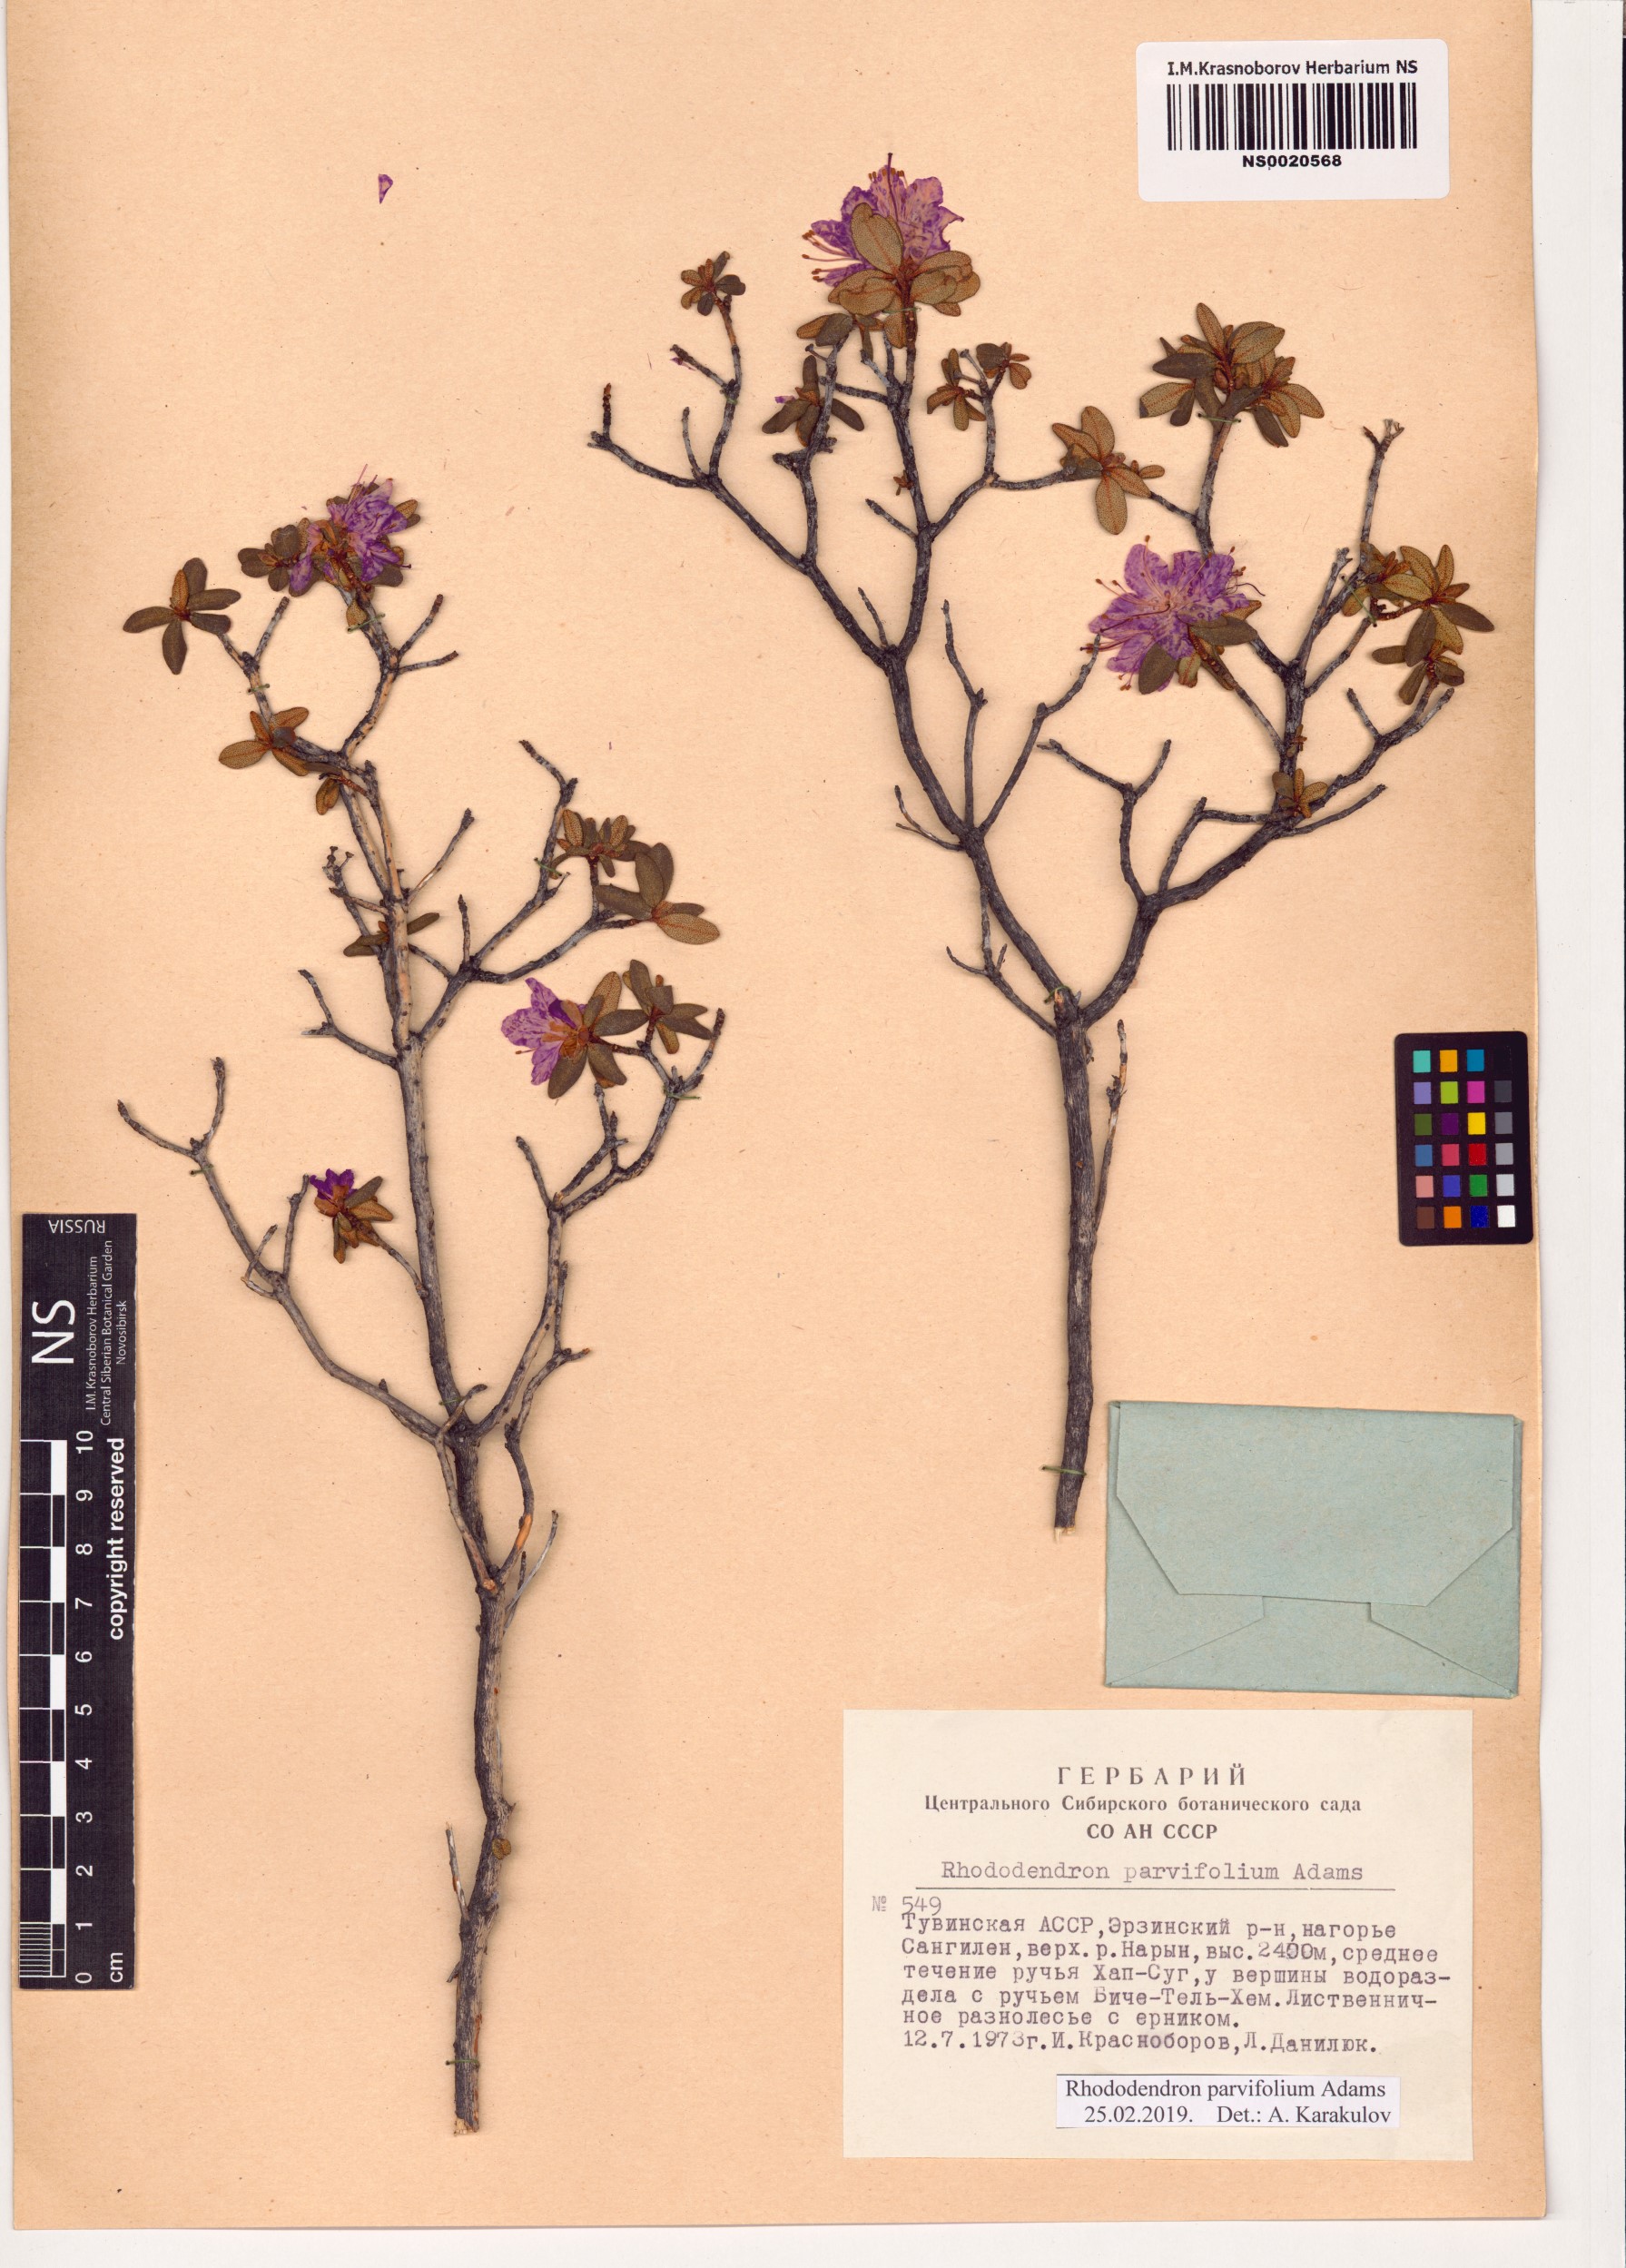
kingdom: Plantae
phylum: Tracheophyta
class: Magnoliopsida
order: Ericales
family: Ericaceae
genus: Rhododendron
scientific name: Rhododendron parvifolium
